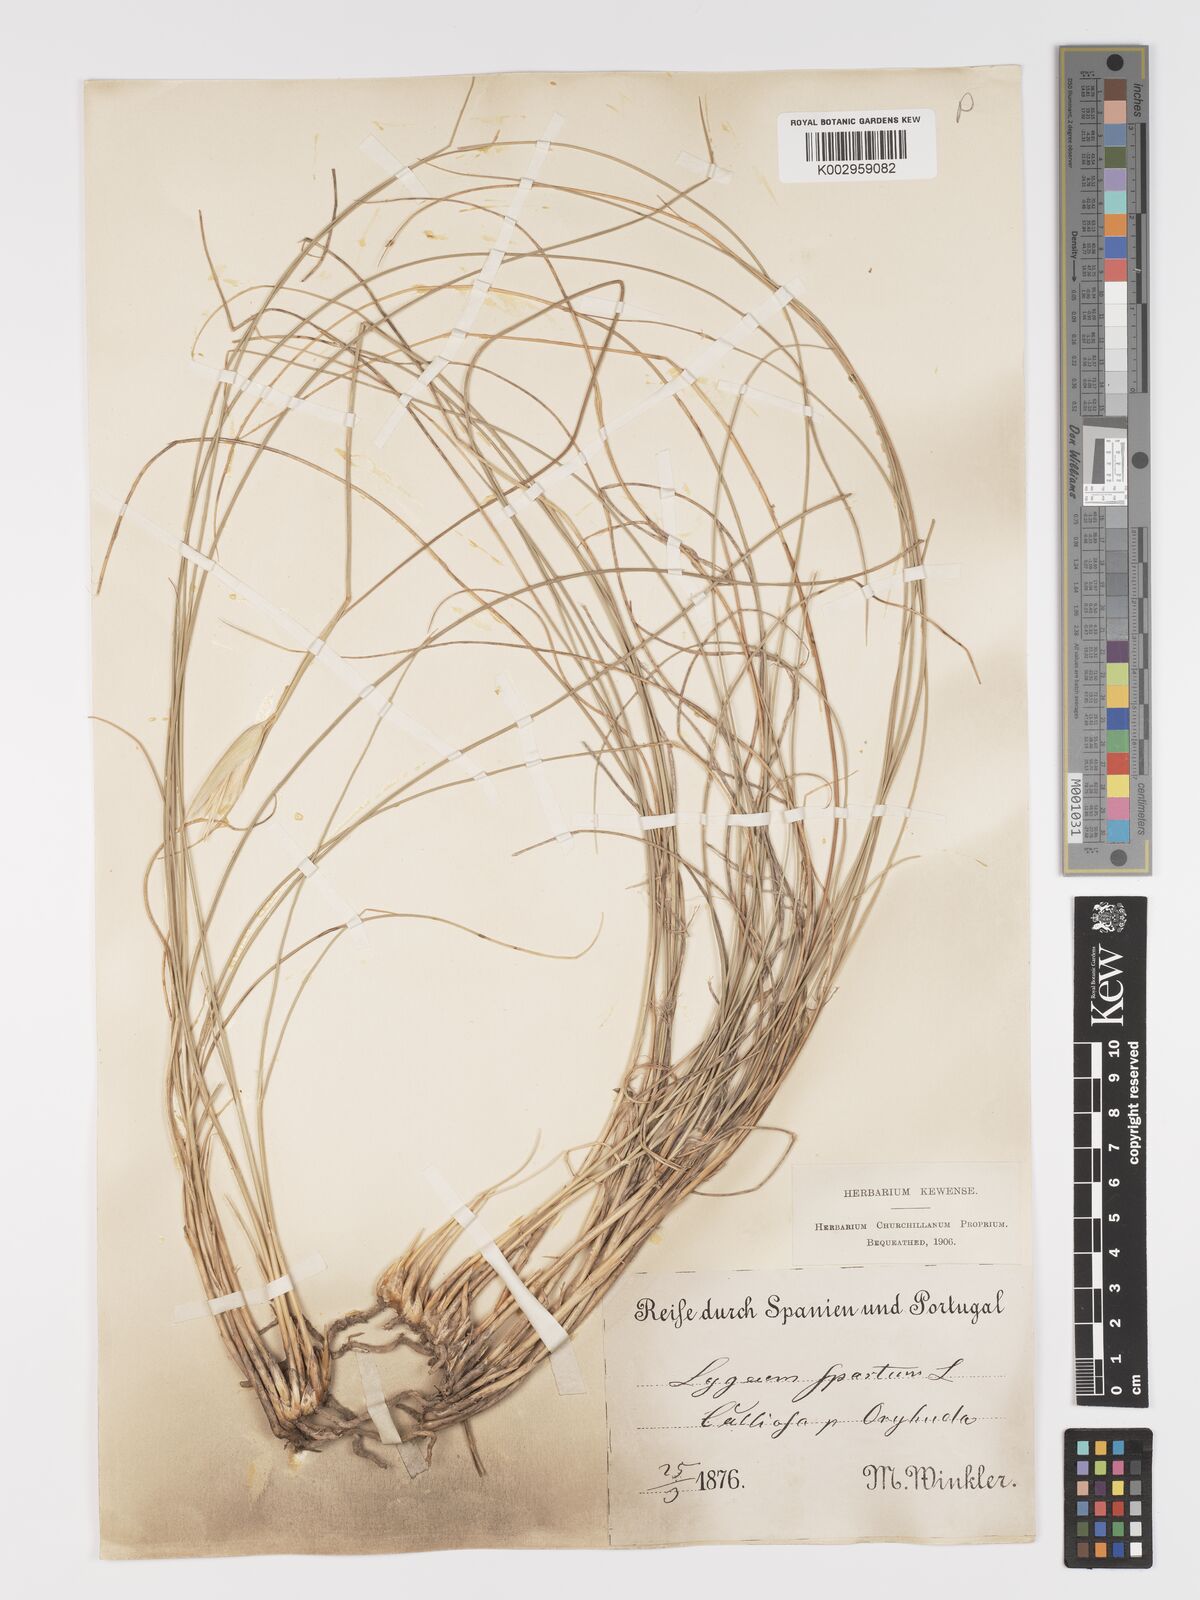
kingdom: Plantae
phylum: Tracheophyta
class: Liliopsida
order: Poales
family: Poaceae
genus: Lygeum
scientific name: Lygeum spartum
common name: Albardine
